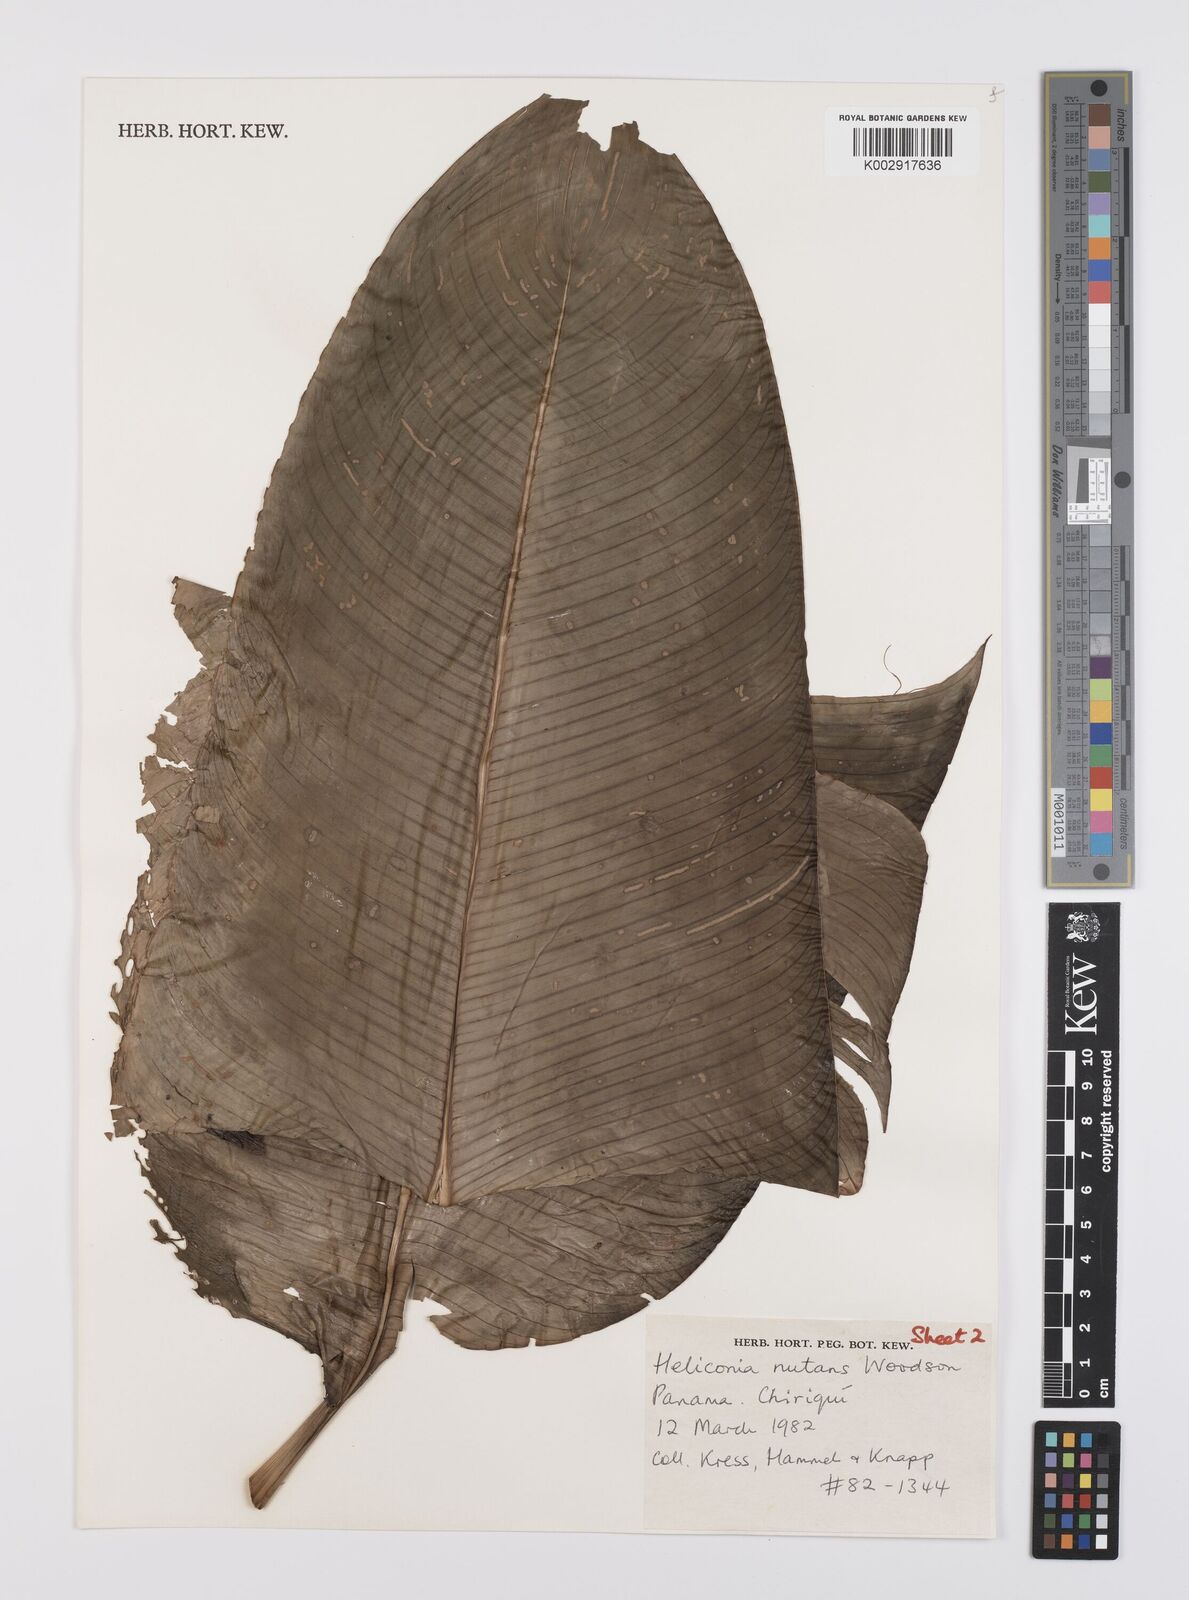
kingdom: Plantae
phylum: Tracheophyta
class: Liliopsida
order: Zingiberales
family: Heliconiaceae
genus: Heliconia
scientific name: Heliconia nutans
